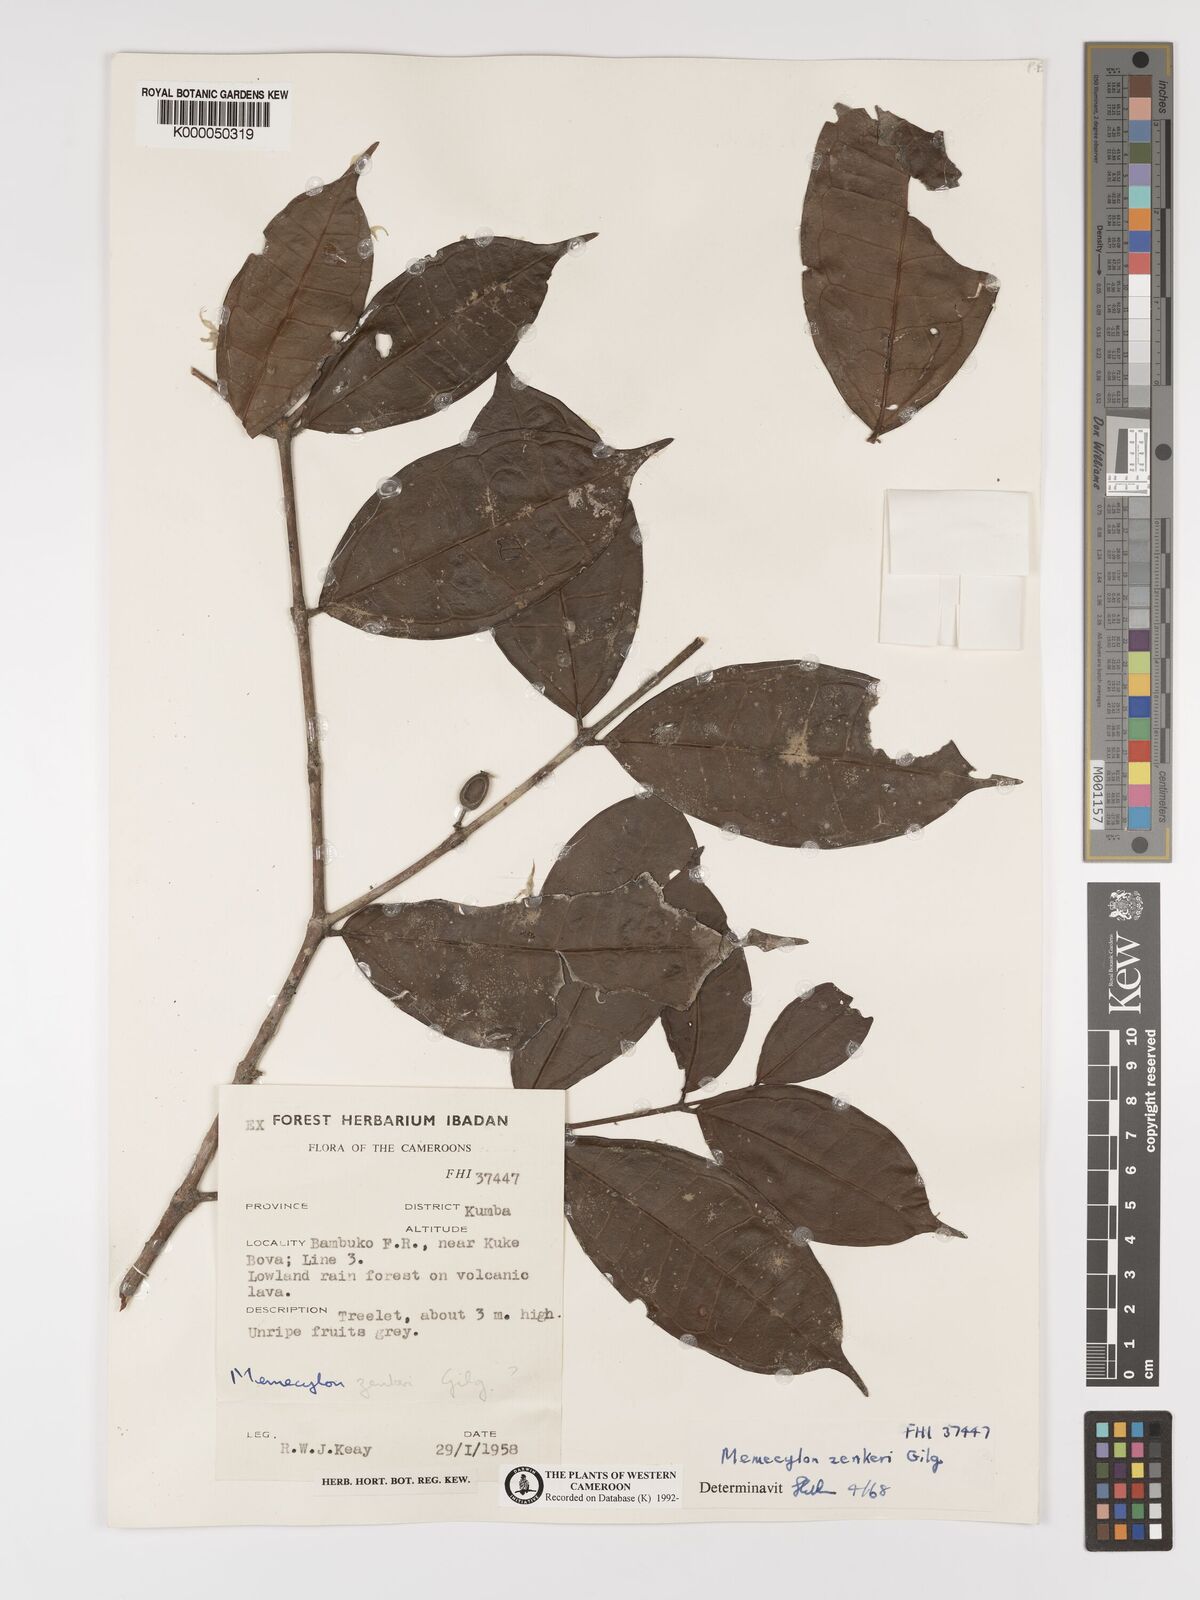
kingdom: Plantae
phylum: Tracheophyta
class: Magnoliopsida
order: Myrtales
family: Melastomataceae
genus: Memecylon
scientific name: Memecylon zenkeri
